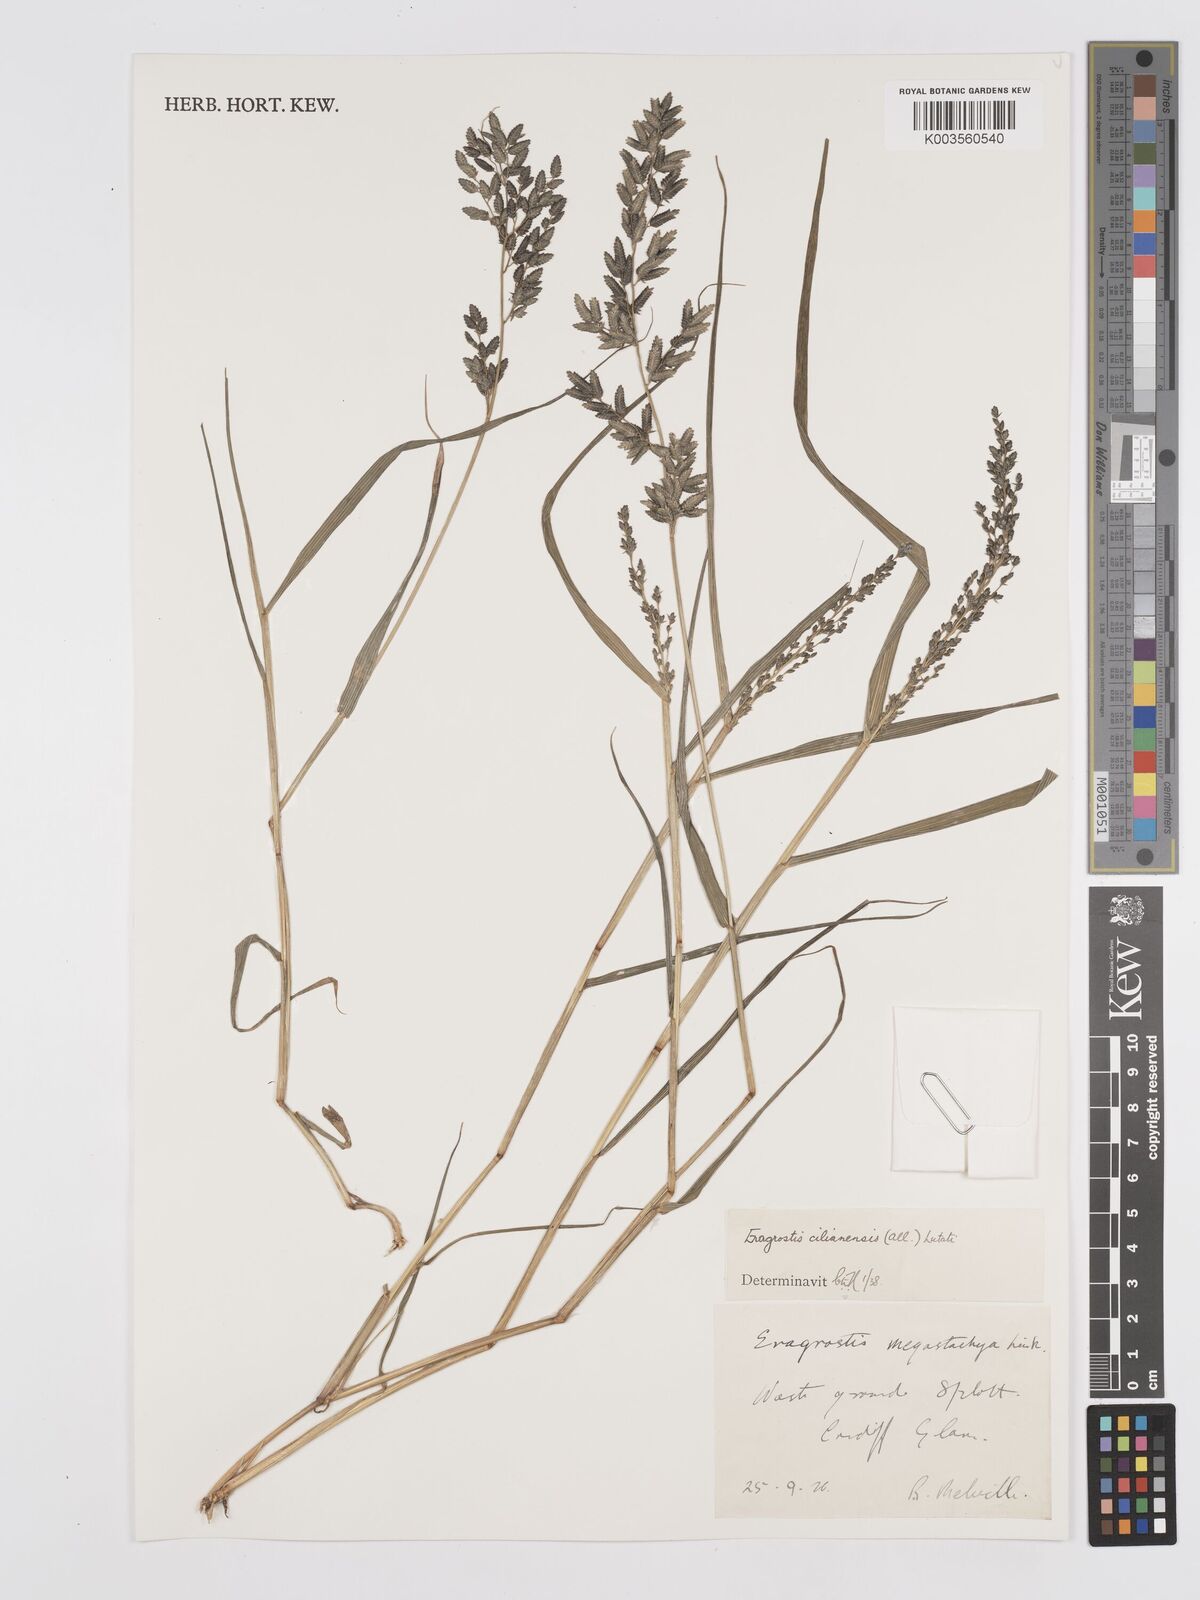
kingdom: Plantae
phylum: Tracheophyta
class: Liliopsida
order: Poales
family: Poaceae
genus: Eragrostis
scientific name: Eragrostis cilianensis
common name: Stinkgrass
